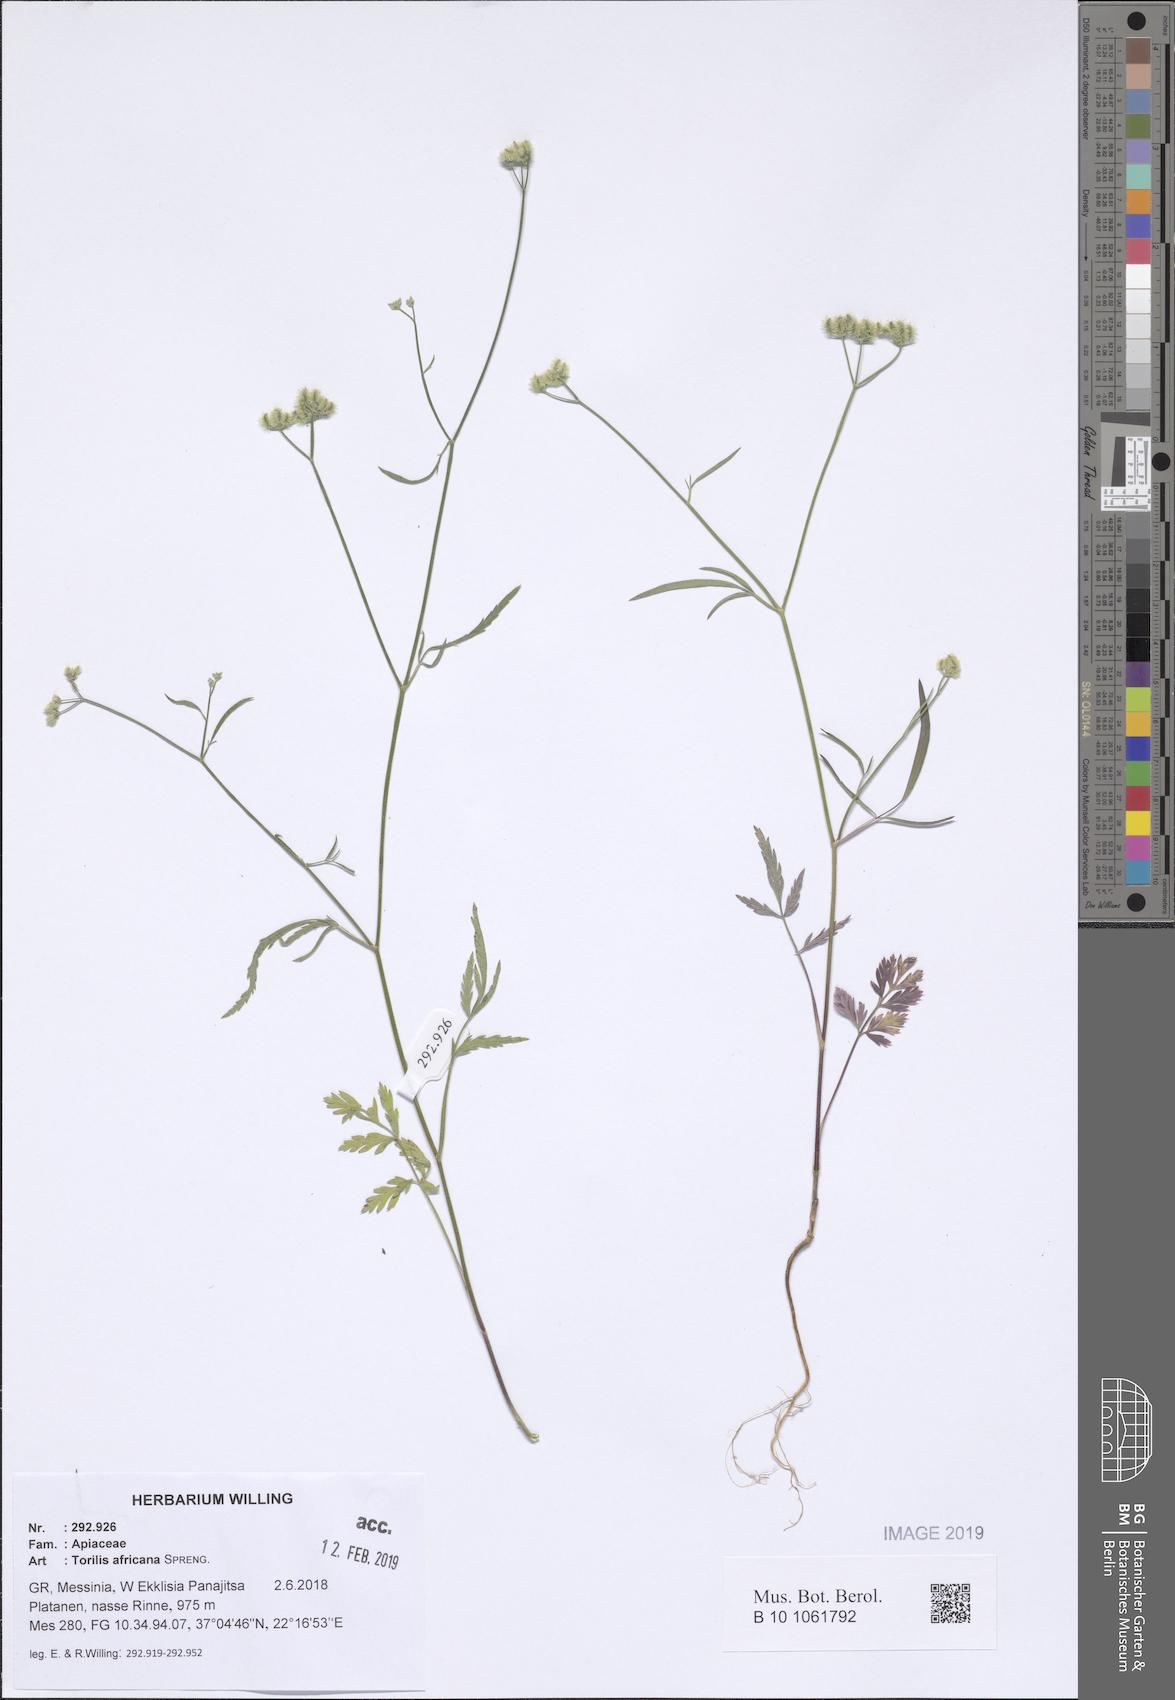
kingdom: Plantae
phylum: Tracheophyta
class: Magnoliopsida
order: Apiales
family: Apiaceae
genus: Torilis
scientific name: Torilis africana
